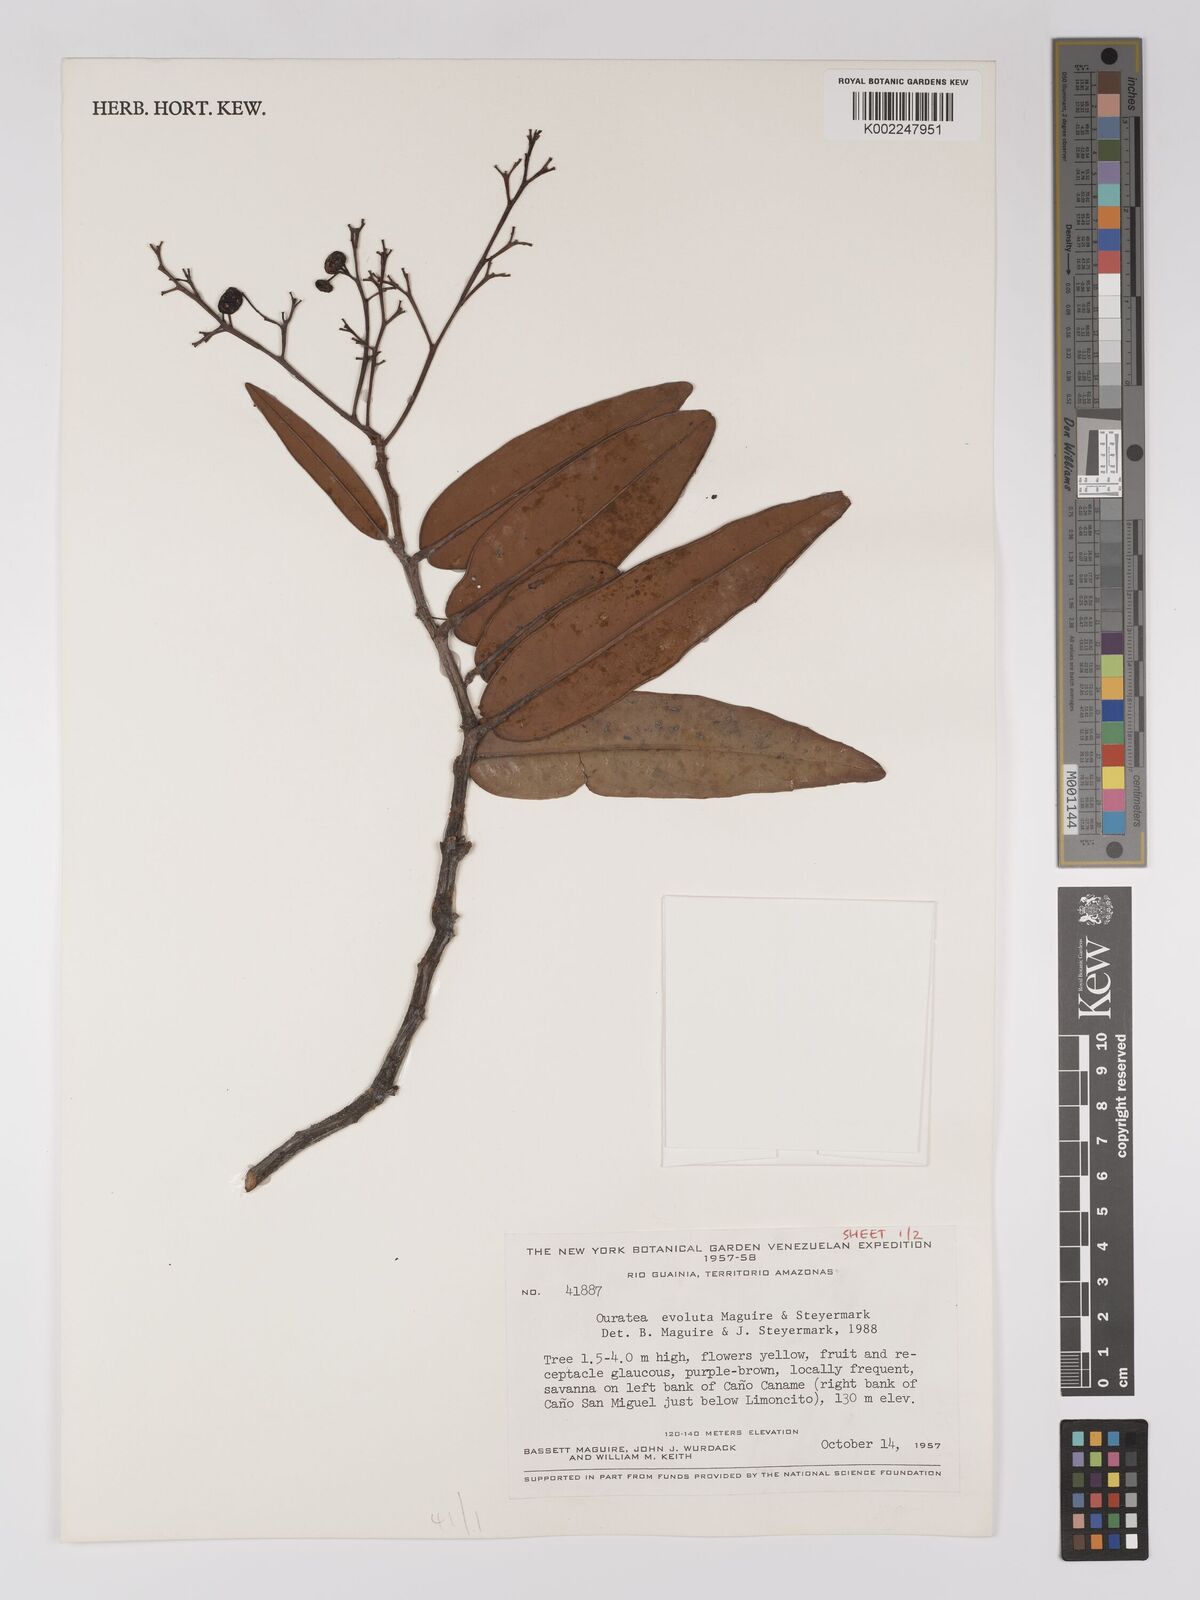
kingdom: Plantae
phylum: Tracheophyta
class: Magnoliopsida
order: Malpighiales
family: Ochnaceae
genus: Ouratea
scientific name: Ouratea evoluta
